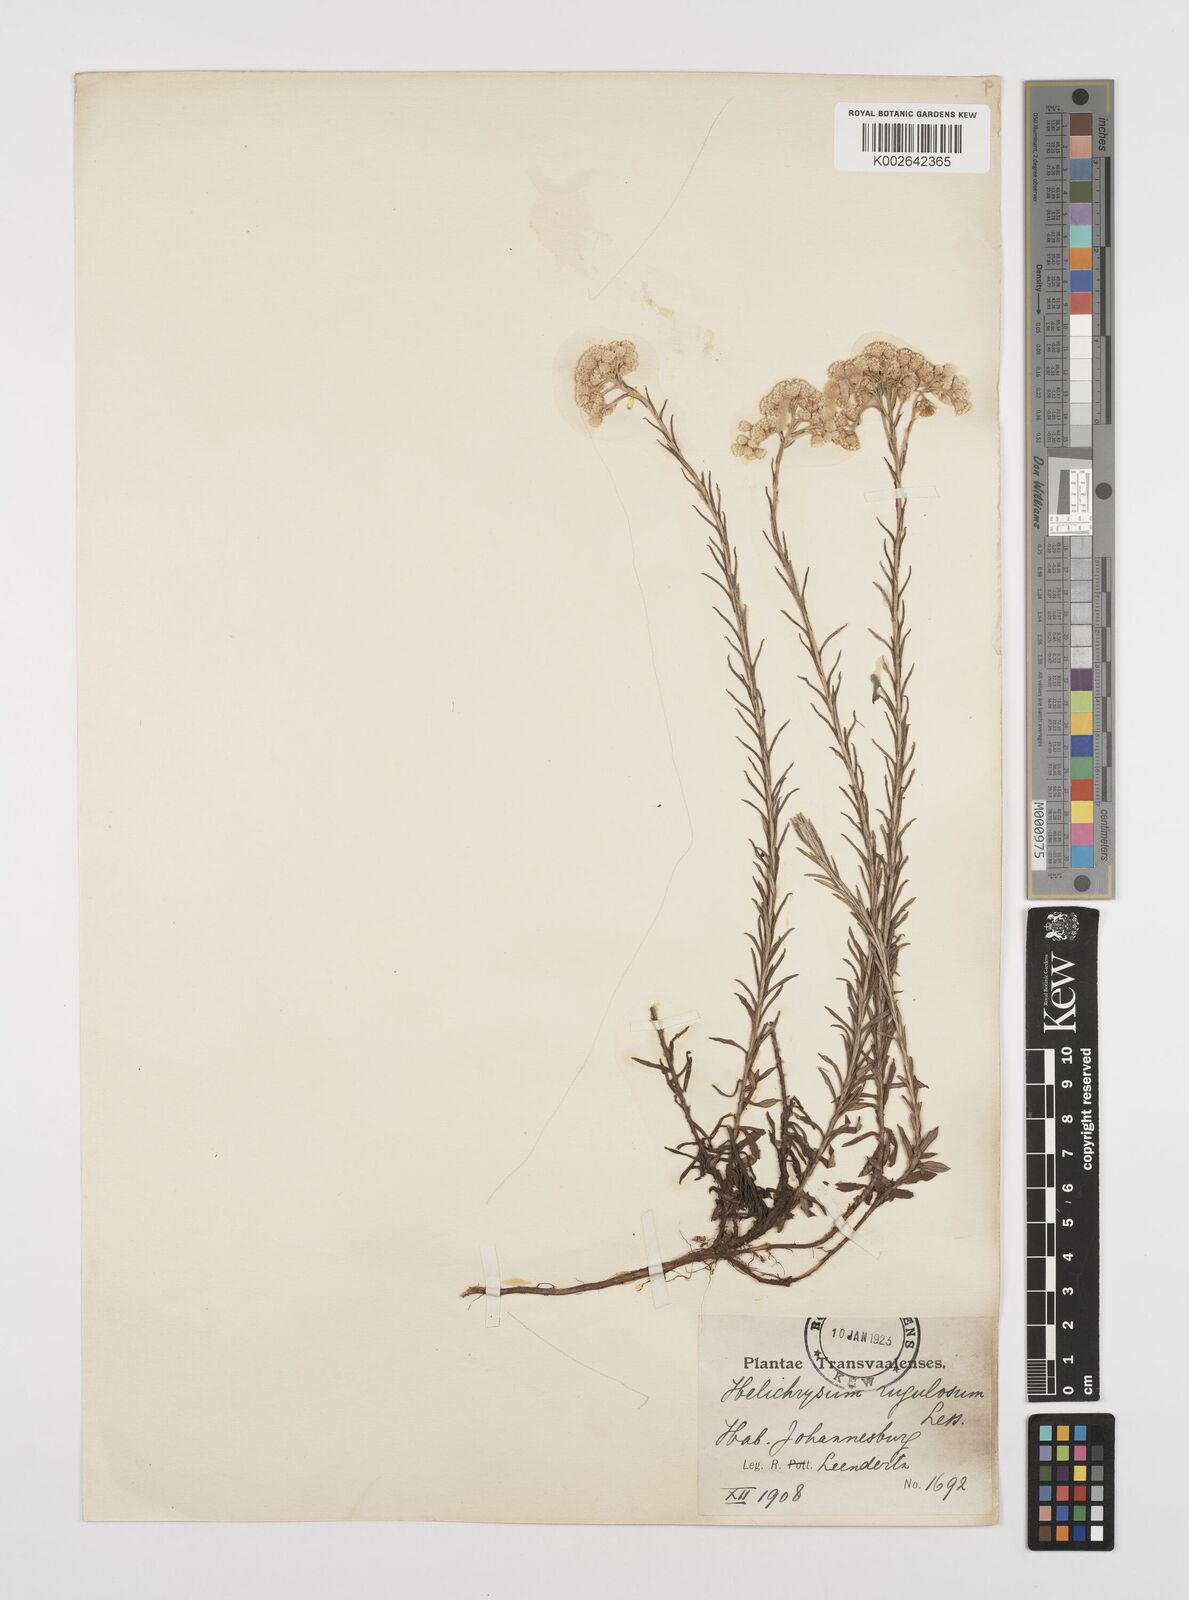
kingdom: Plantae
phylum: Tracheophyta
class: Magnoliopsida
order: Asterales
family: Asteraceae
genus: Helichrysum
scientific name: Helichrysum rugulosum
